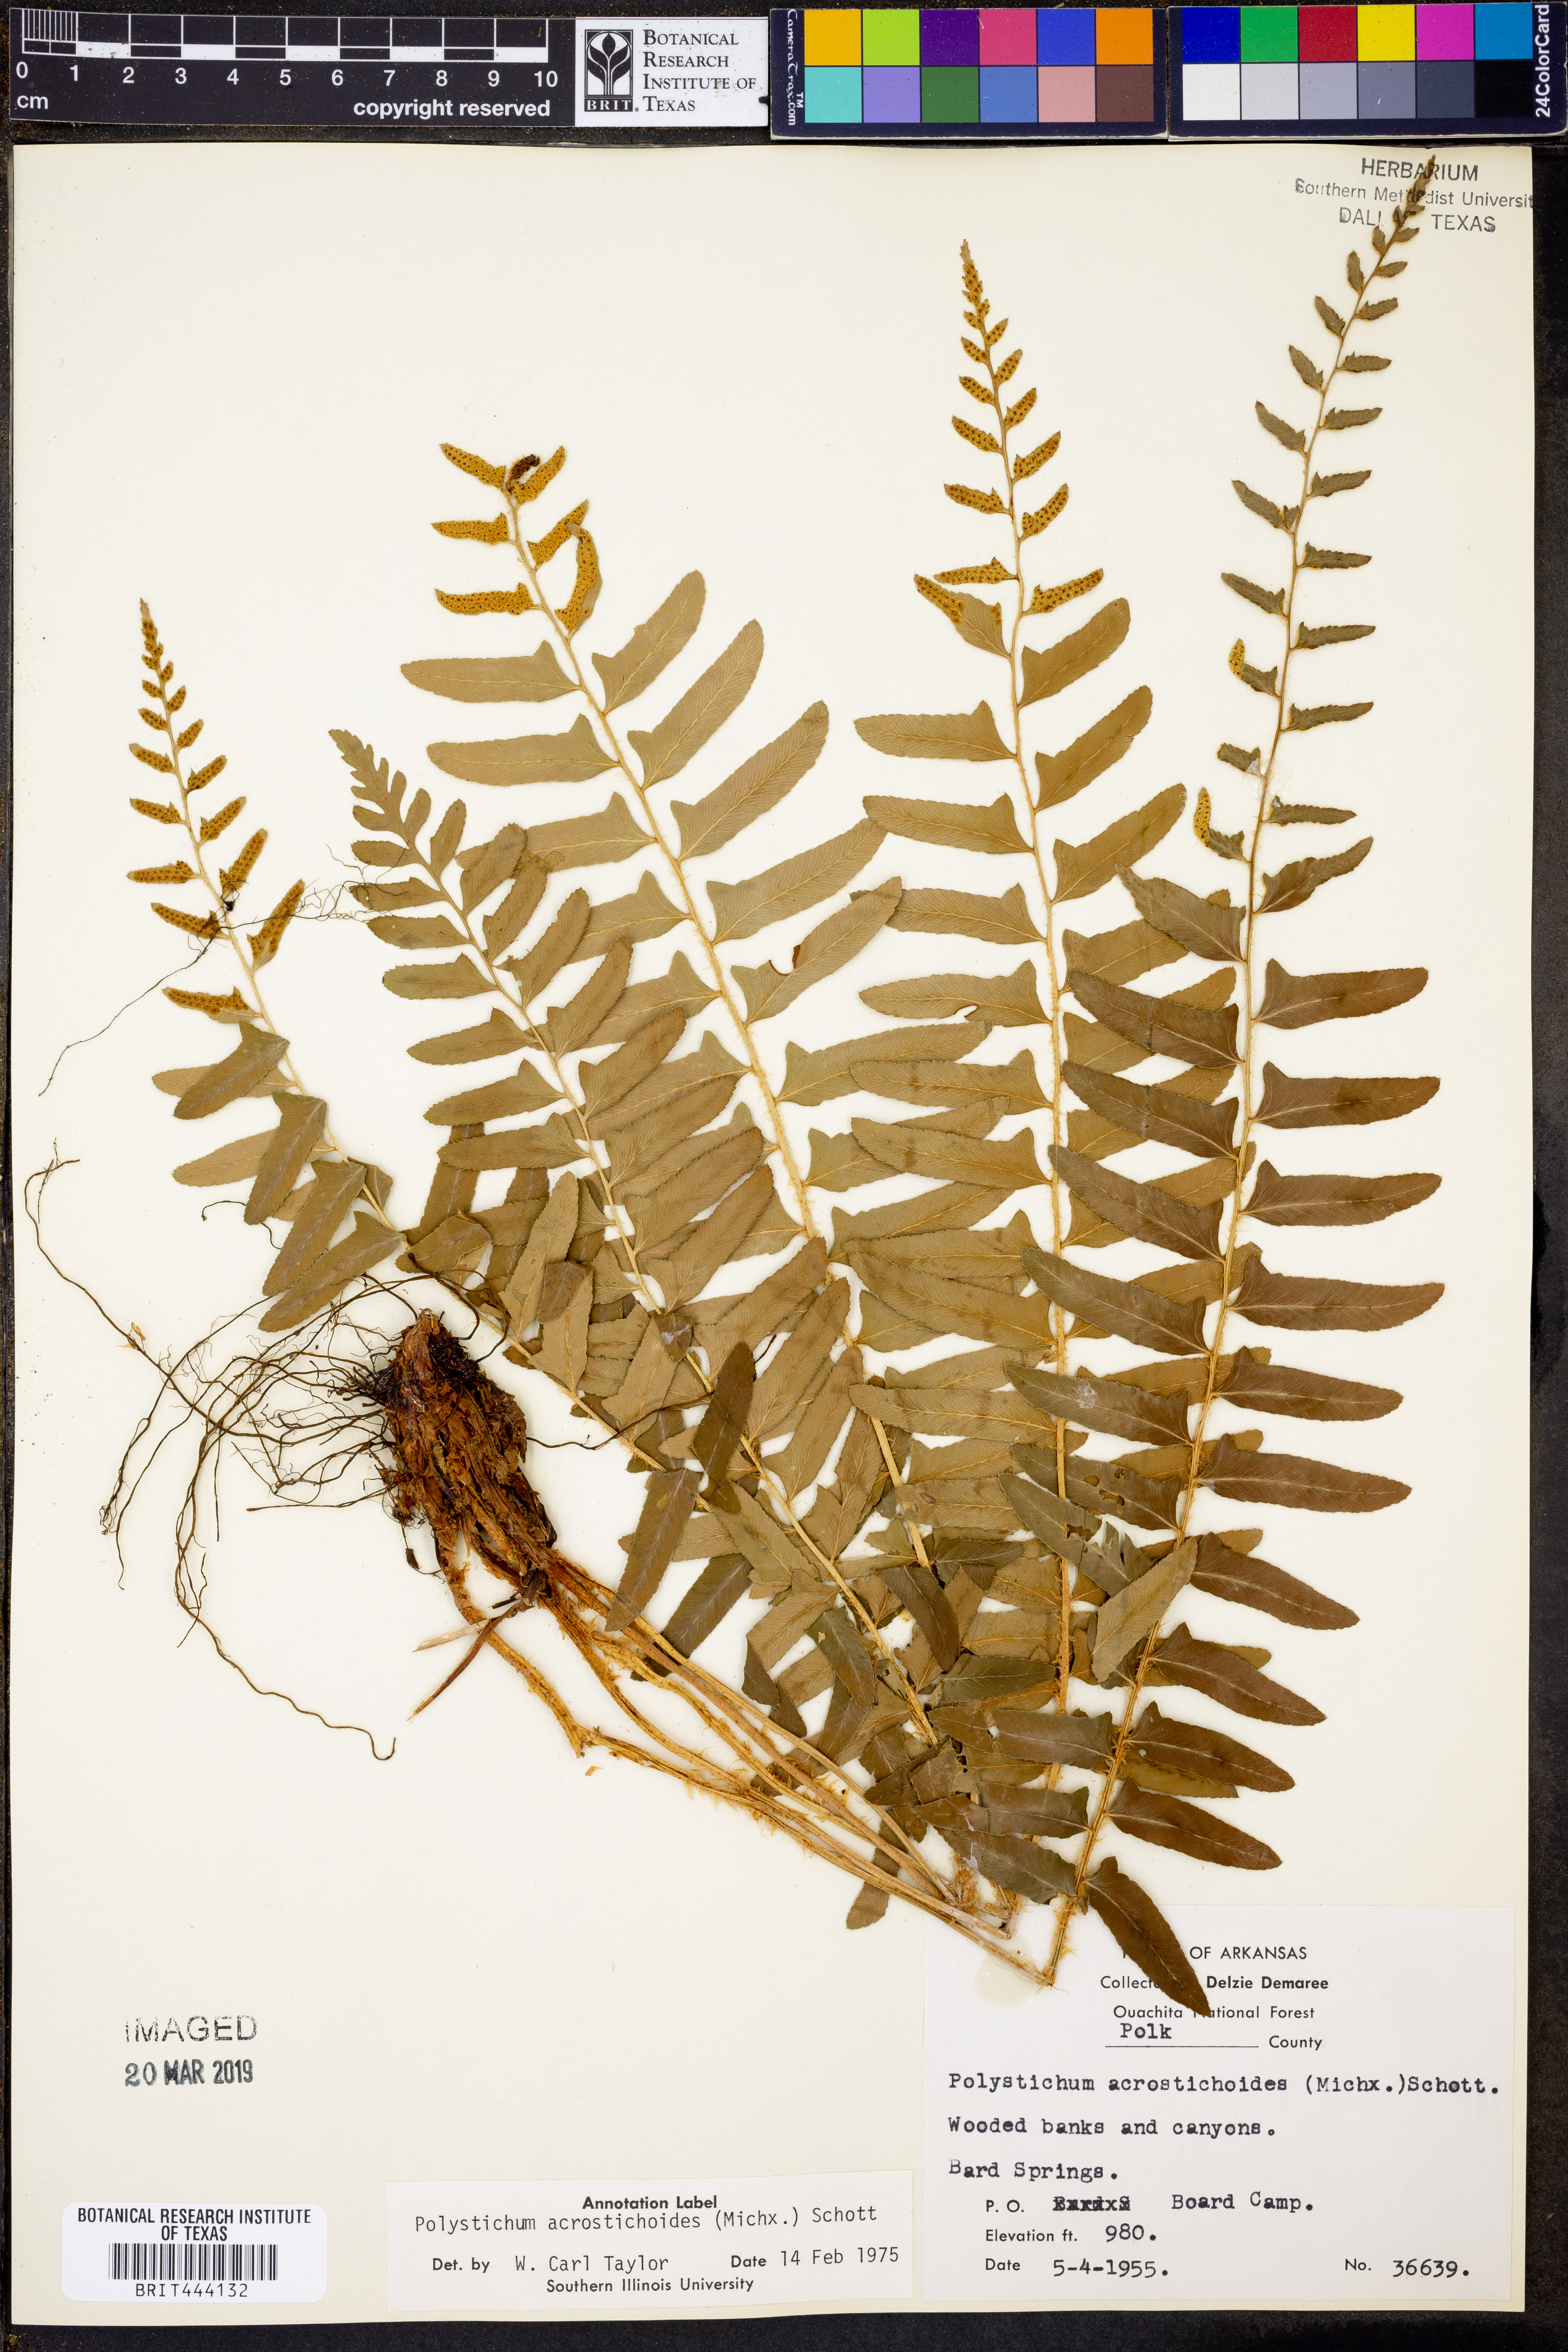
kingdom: Plantae
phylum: Tracheophyta
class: Polypodiopsida
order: Polypodiales
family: Dryopteridaceae
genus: Polystichum
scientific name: Polystichum acrostichoides
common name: Christmas fern
